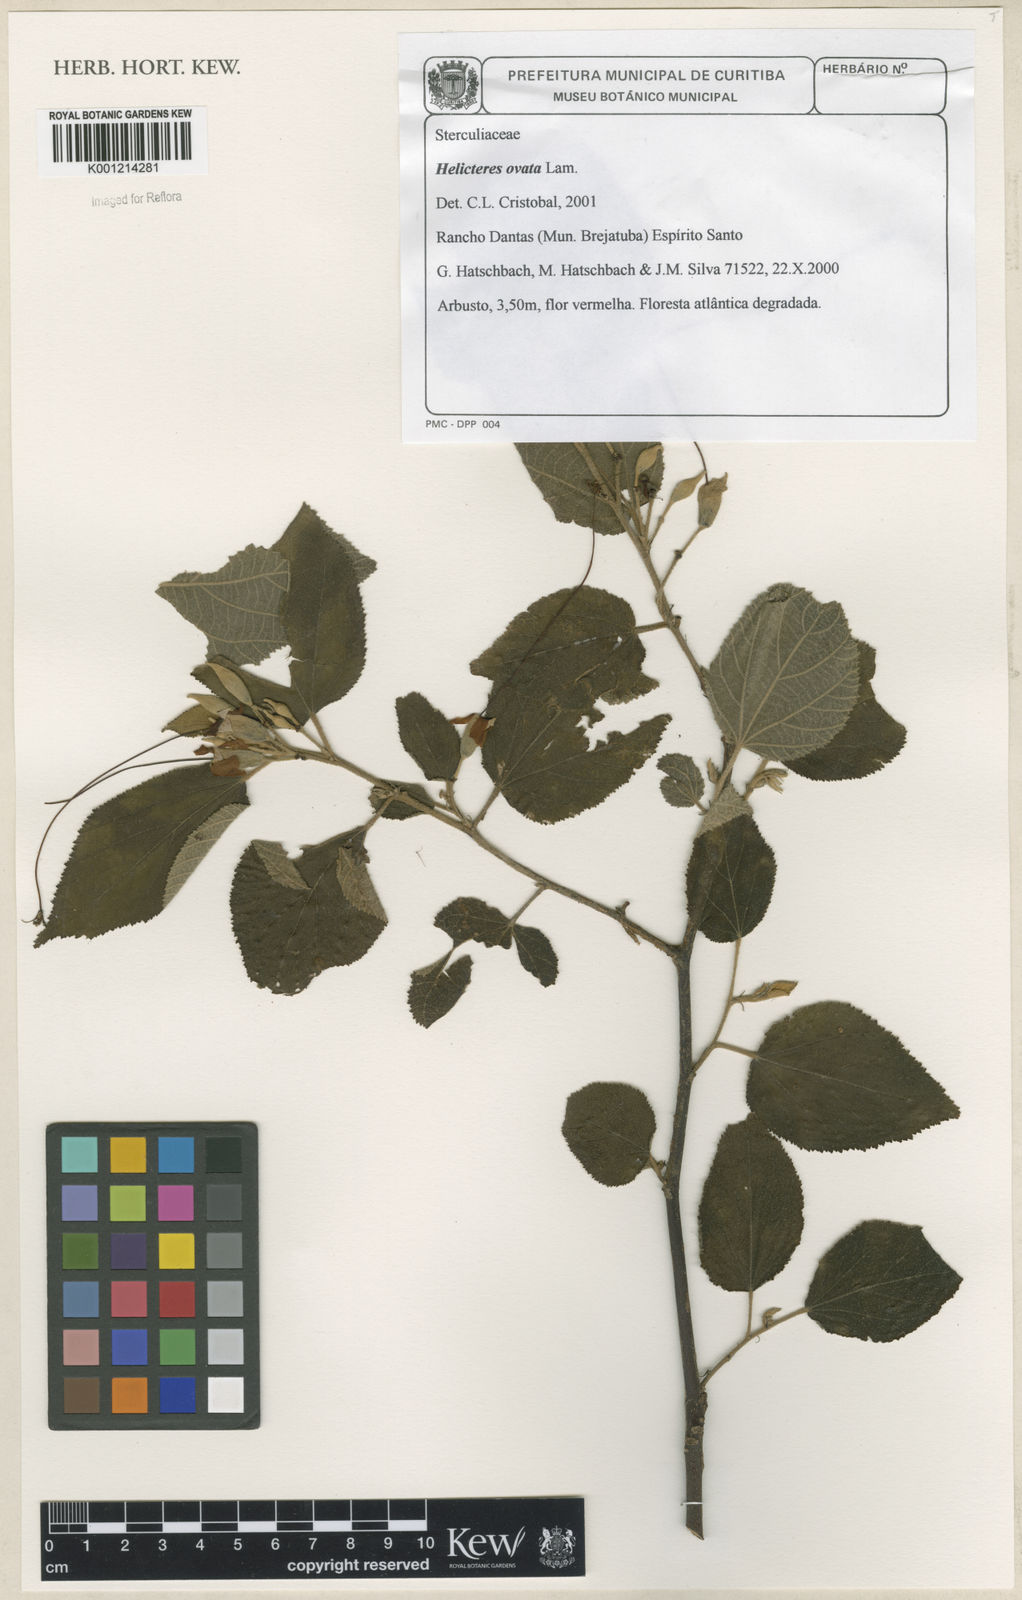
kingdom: Plantae
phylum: Tracheophyta
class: Magnoliopsida
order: Malvales
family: Malvaceae
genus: Helicteres
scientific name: Helicteres ovata
